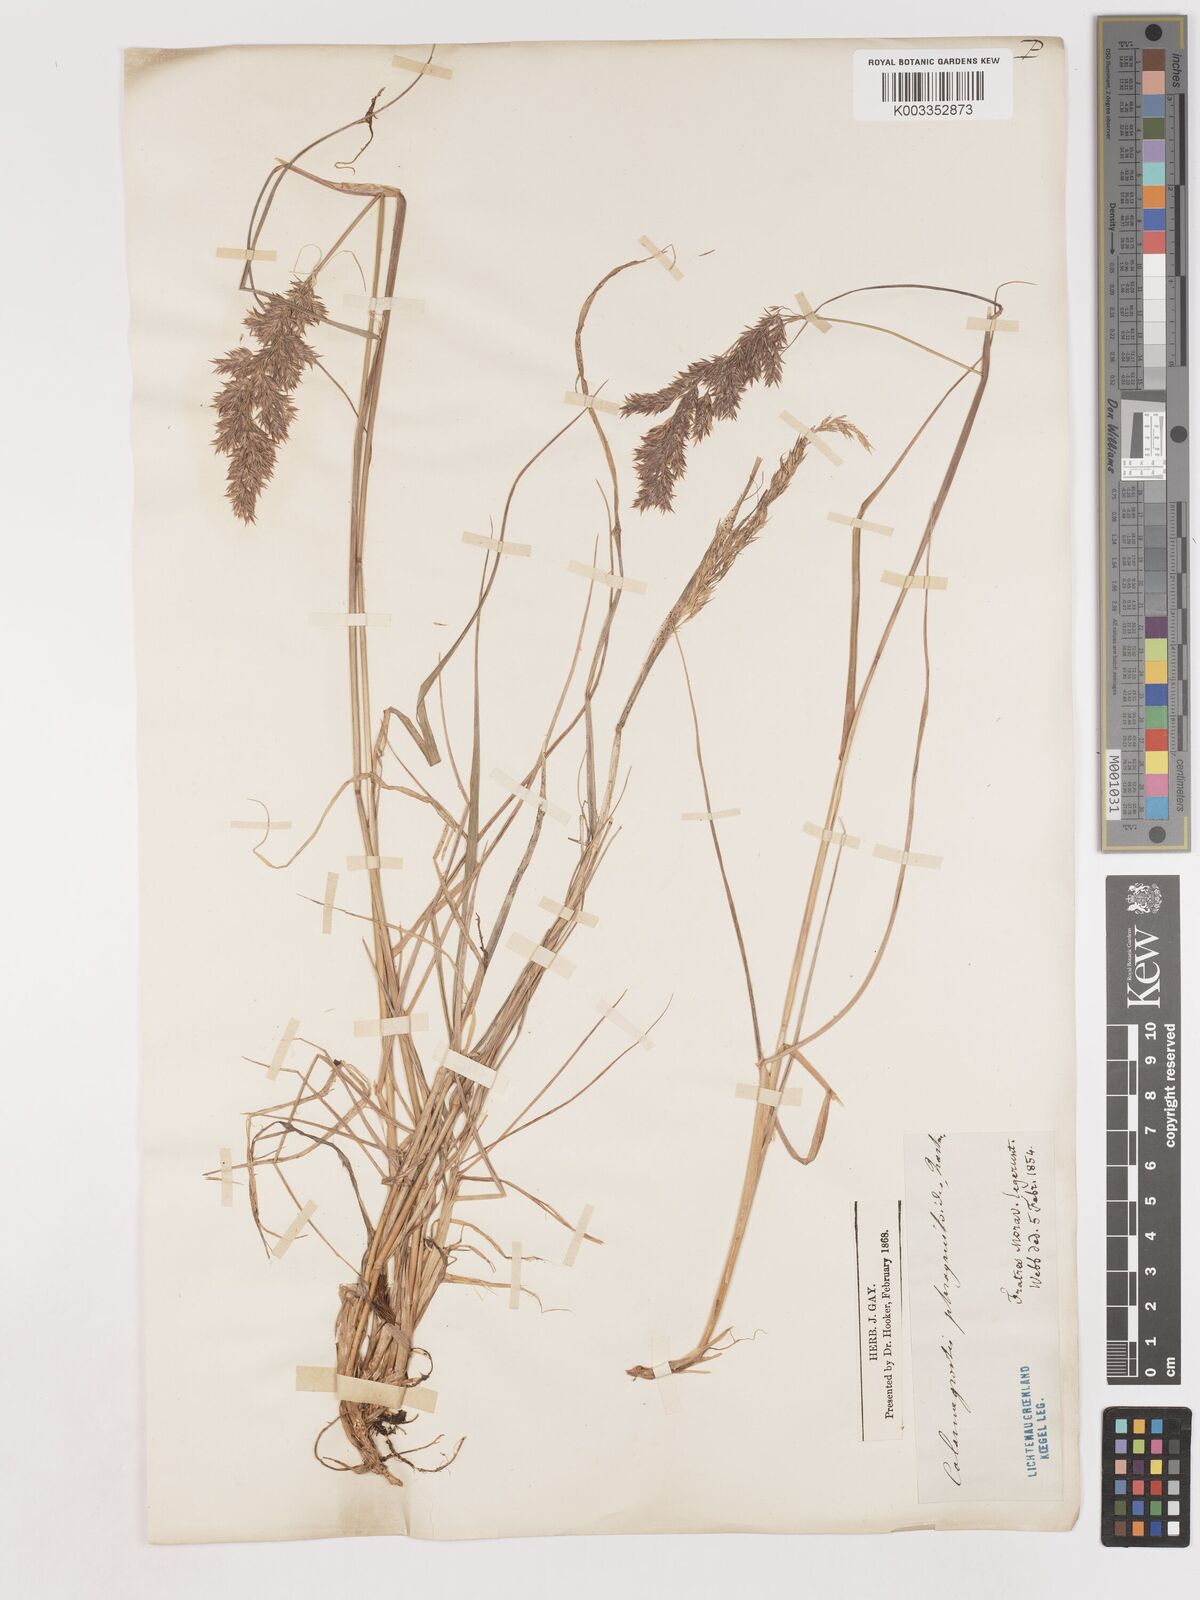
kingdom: Plantae
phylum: Tracheophyta
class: Liliopsida
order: Poales
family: Poaceae
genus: Calamagrostis
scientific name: Calamagrostis purpurea
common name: Scandinavian small-reed
